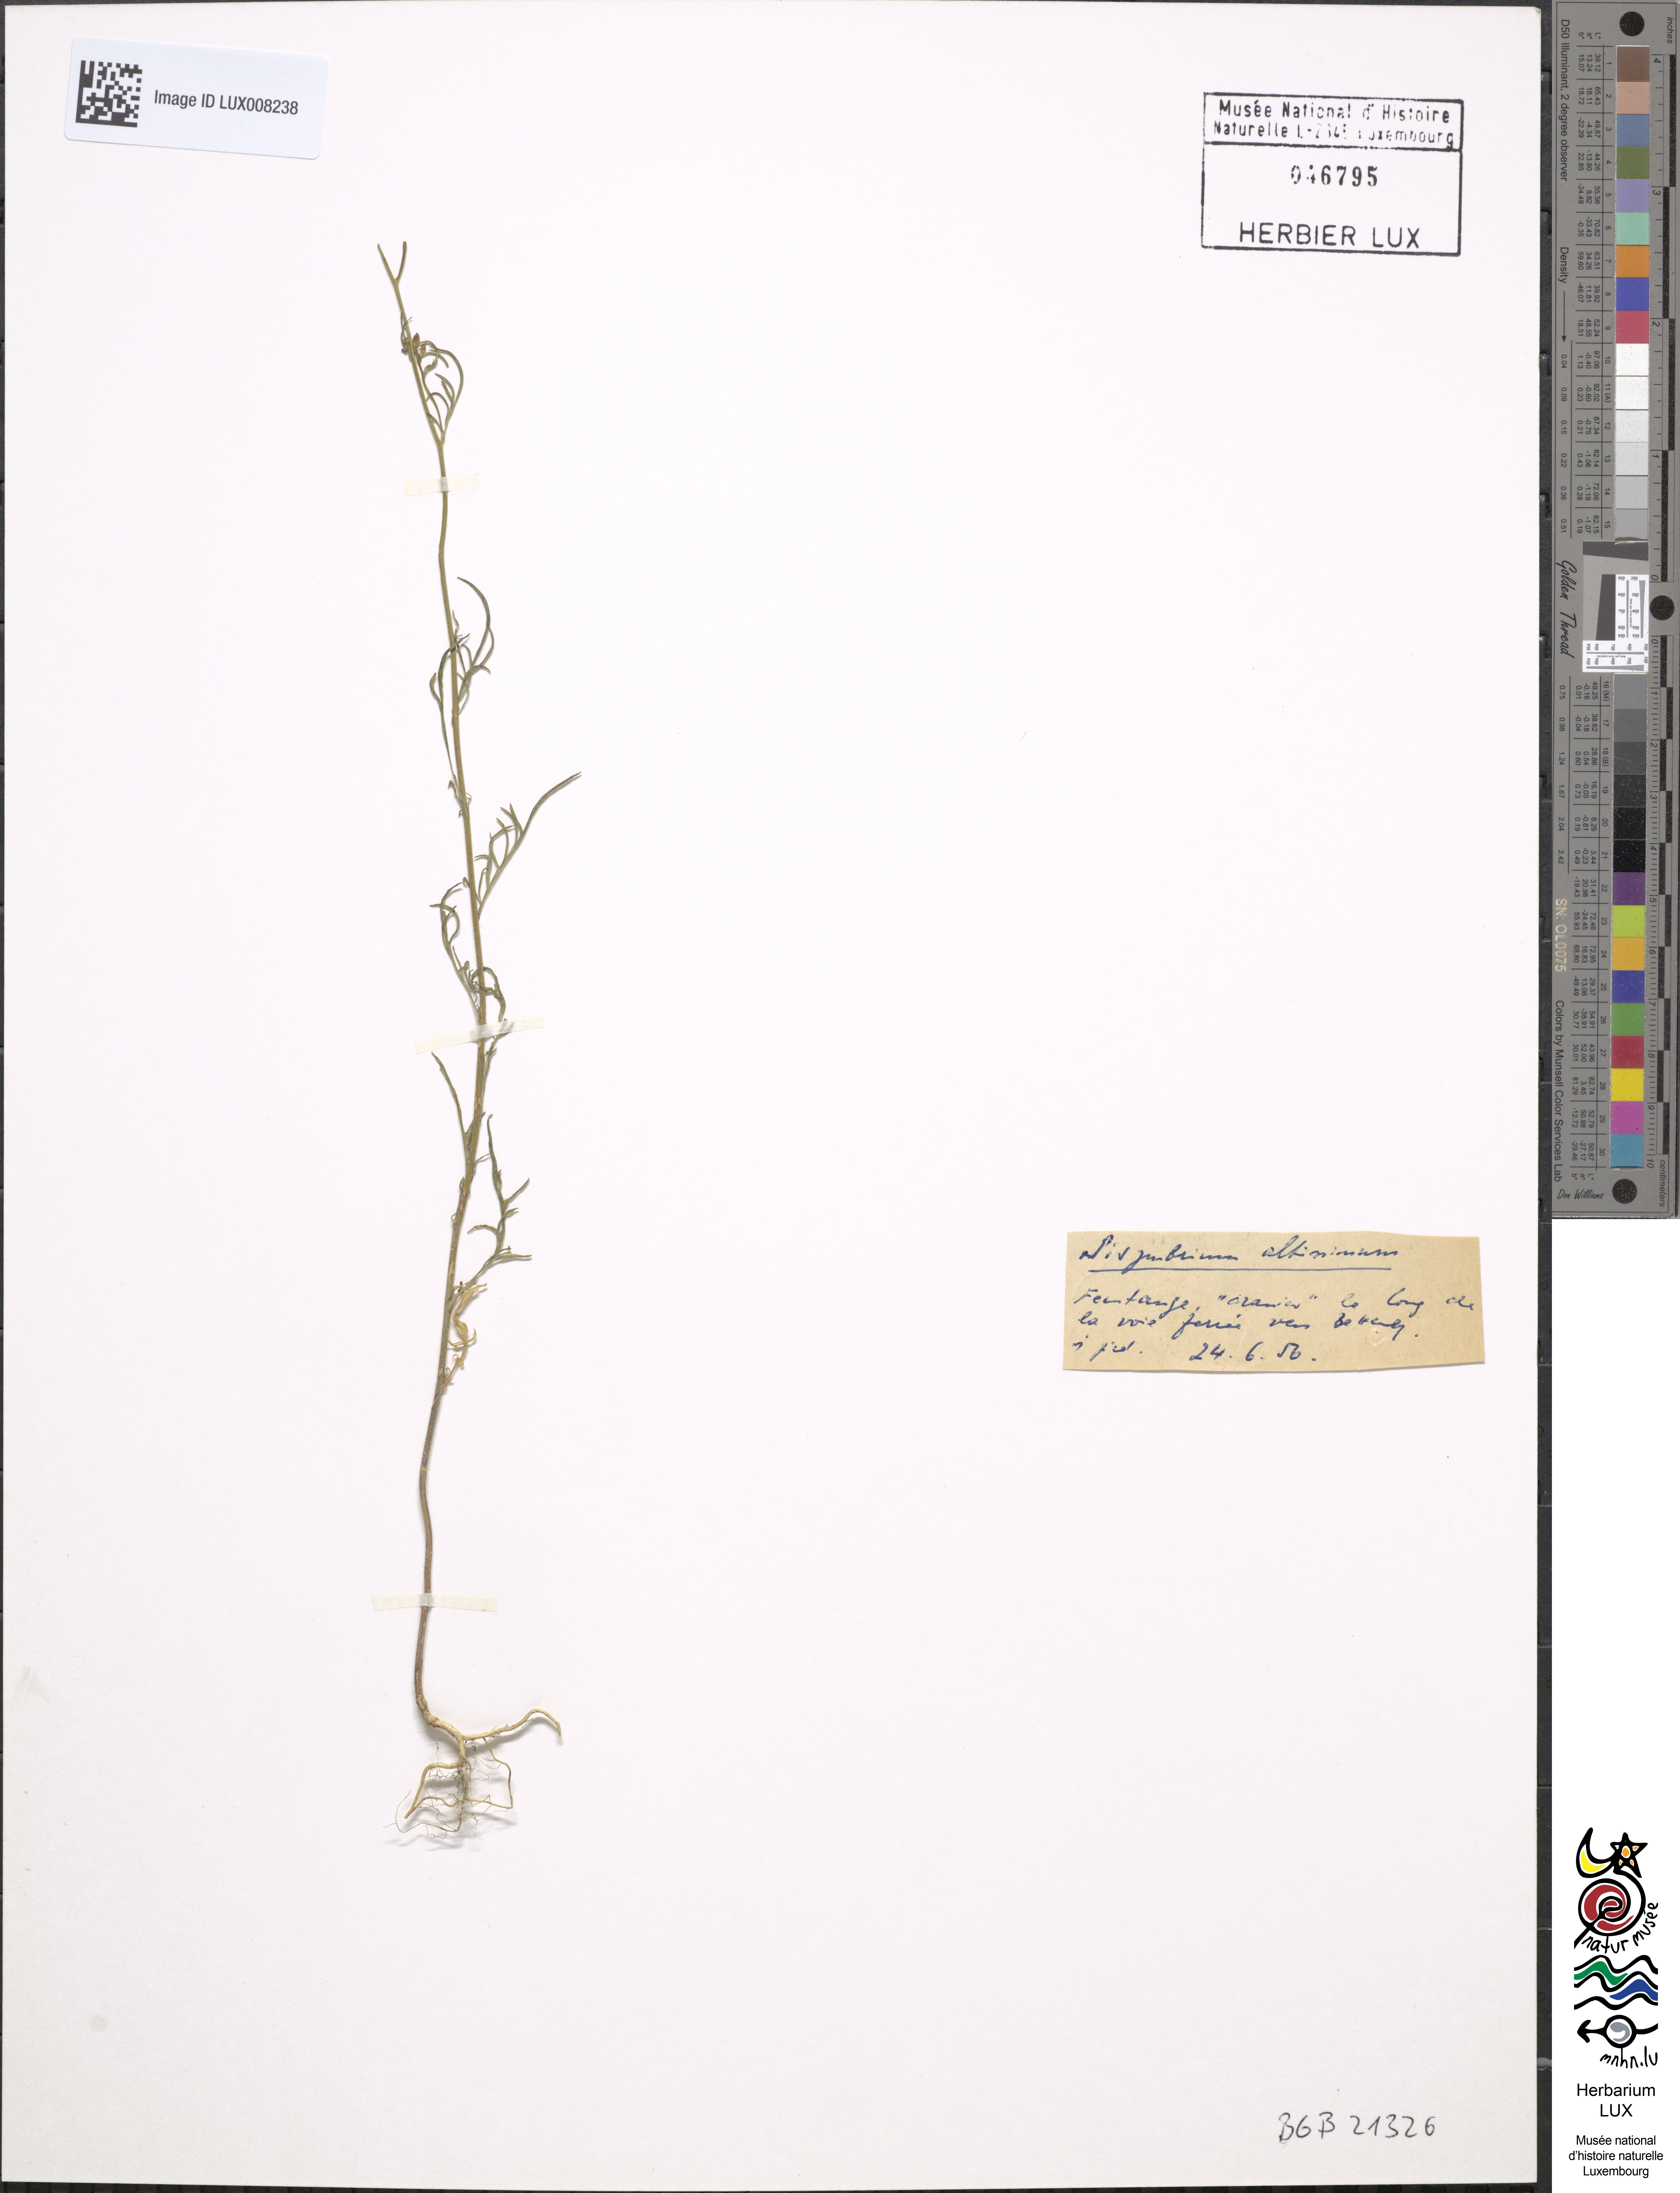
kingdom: Plantae
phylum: Tracheophyta
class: Magnoliopsida
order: Brassicales
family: Brassicaceae
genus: Sisymbrium
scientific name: Sisymbrium altissimum
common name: Tall rocket
